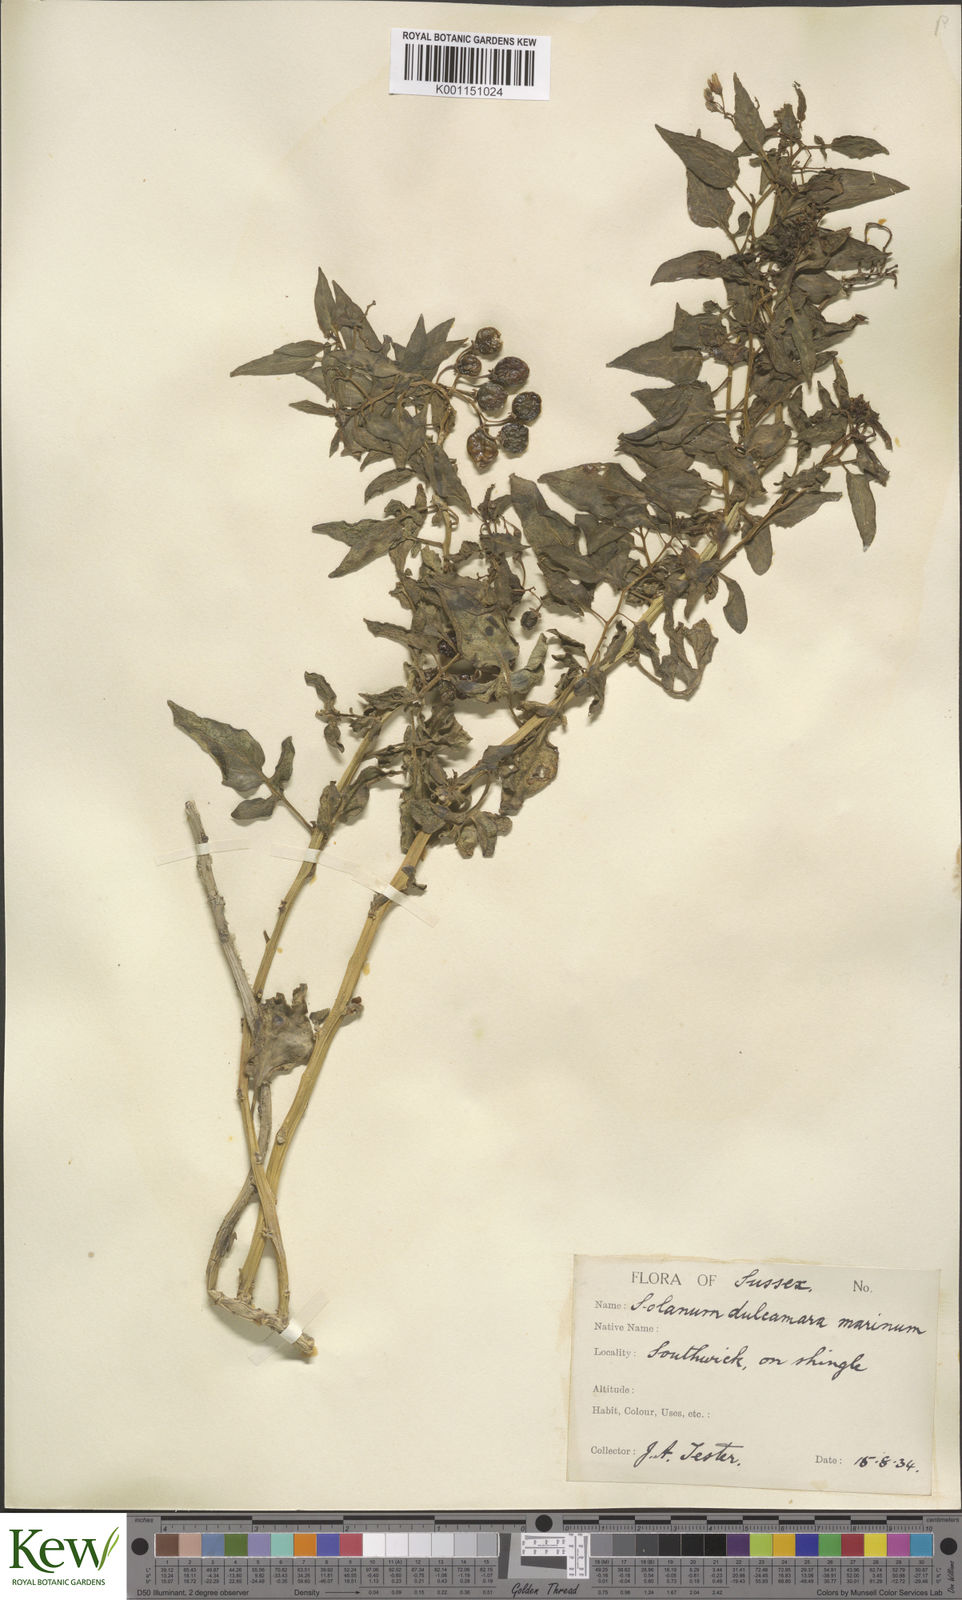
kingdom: Plantae
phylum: Tracheophyta
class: Magnoliopsida
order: Solanales
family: Solanaceae
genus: Solanum
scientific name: Solanum dulcamara
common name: Climbing nightshade
